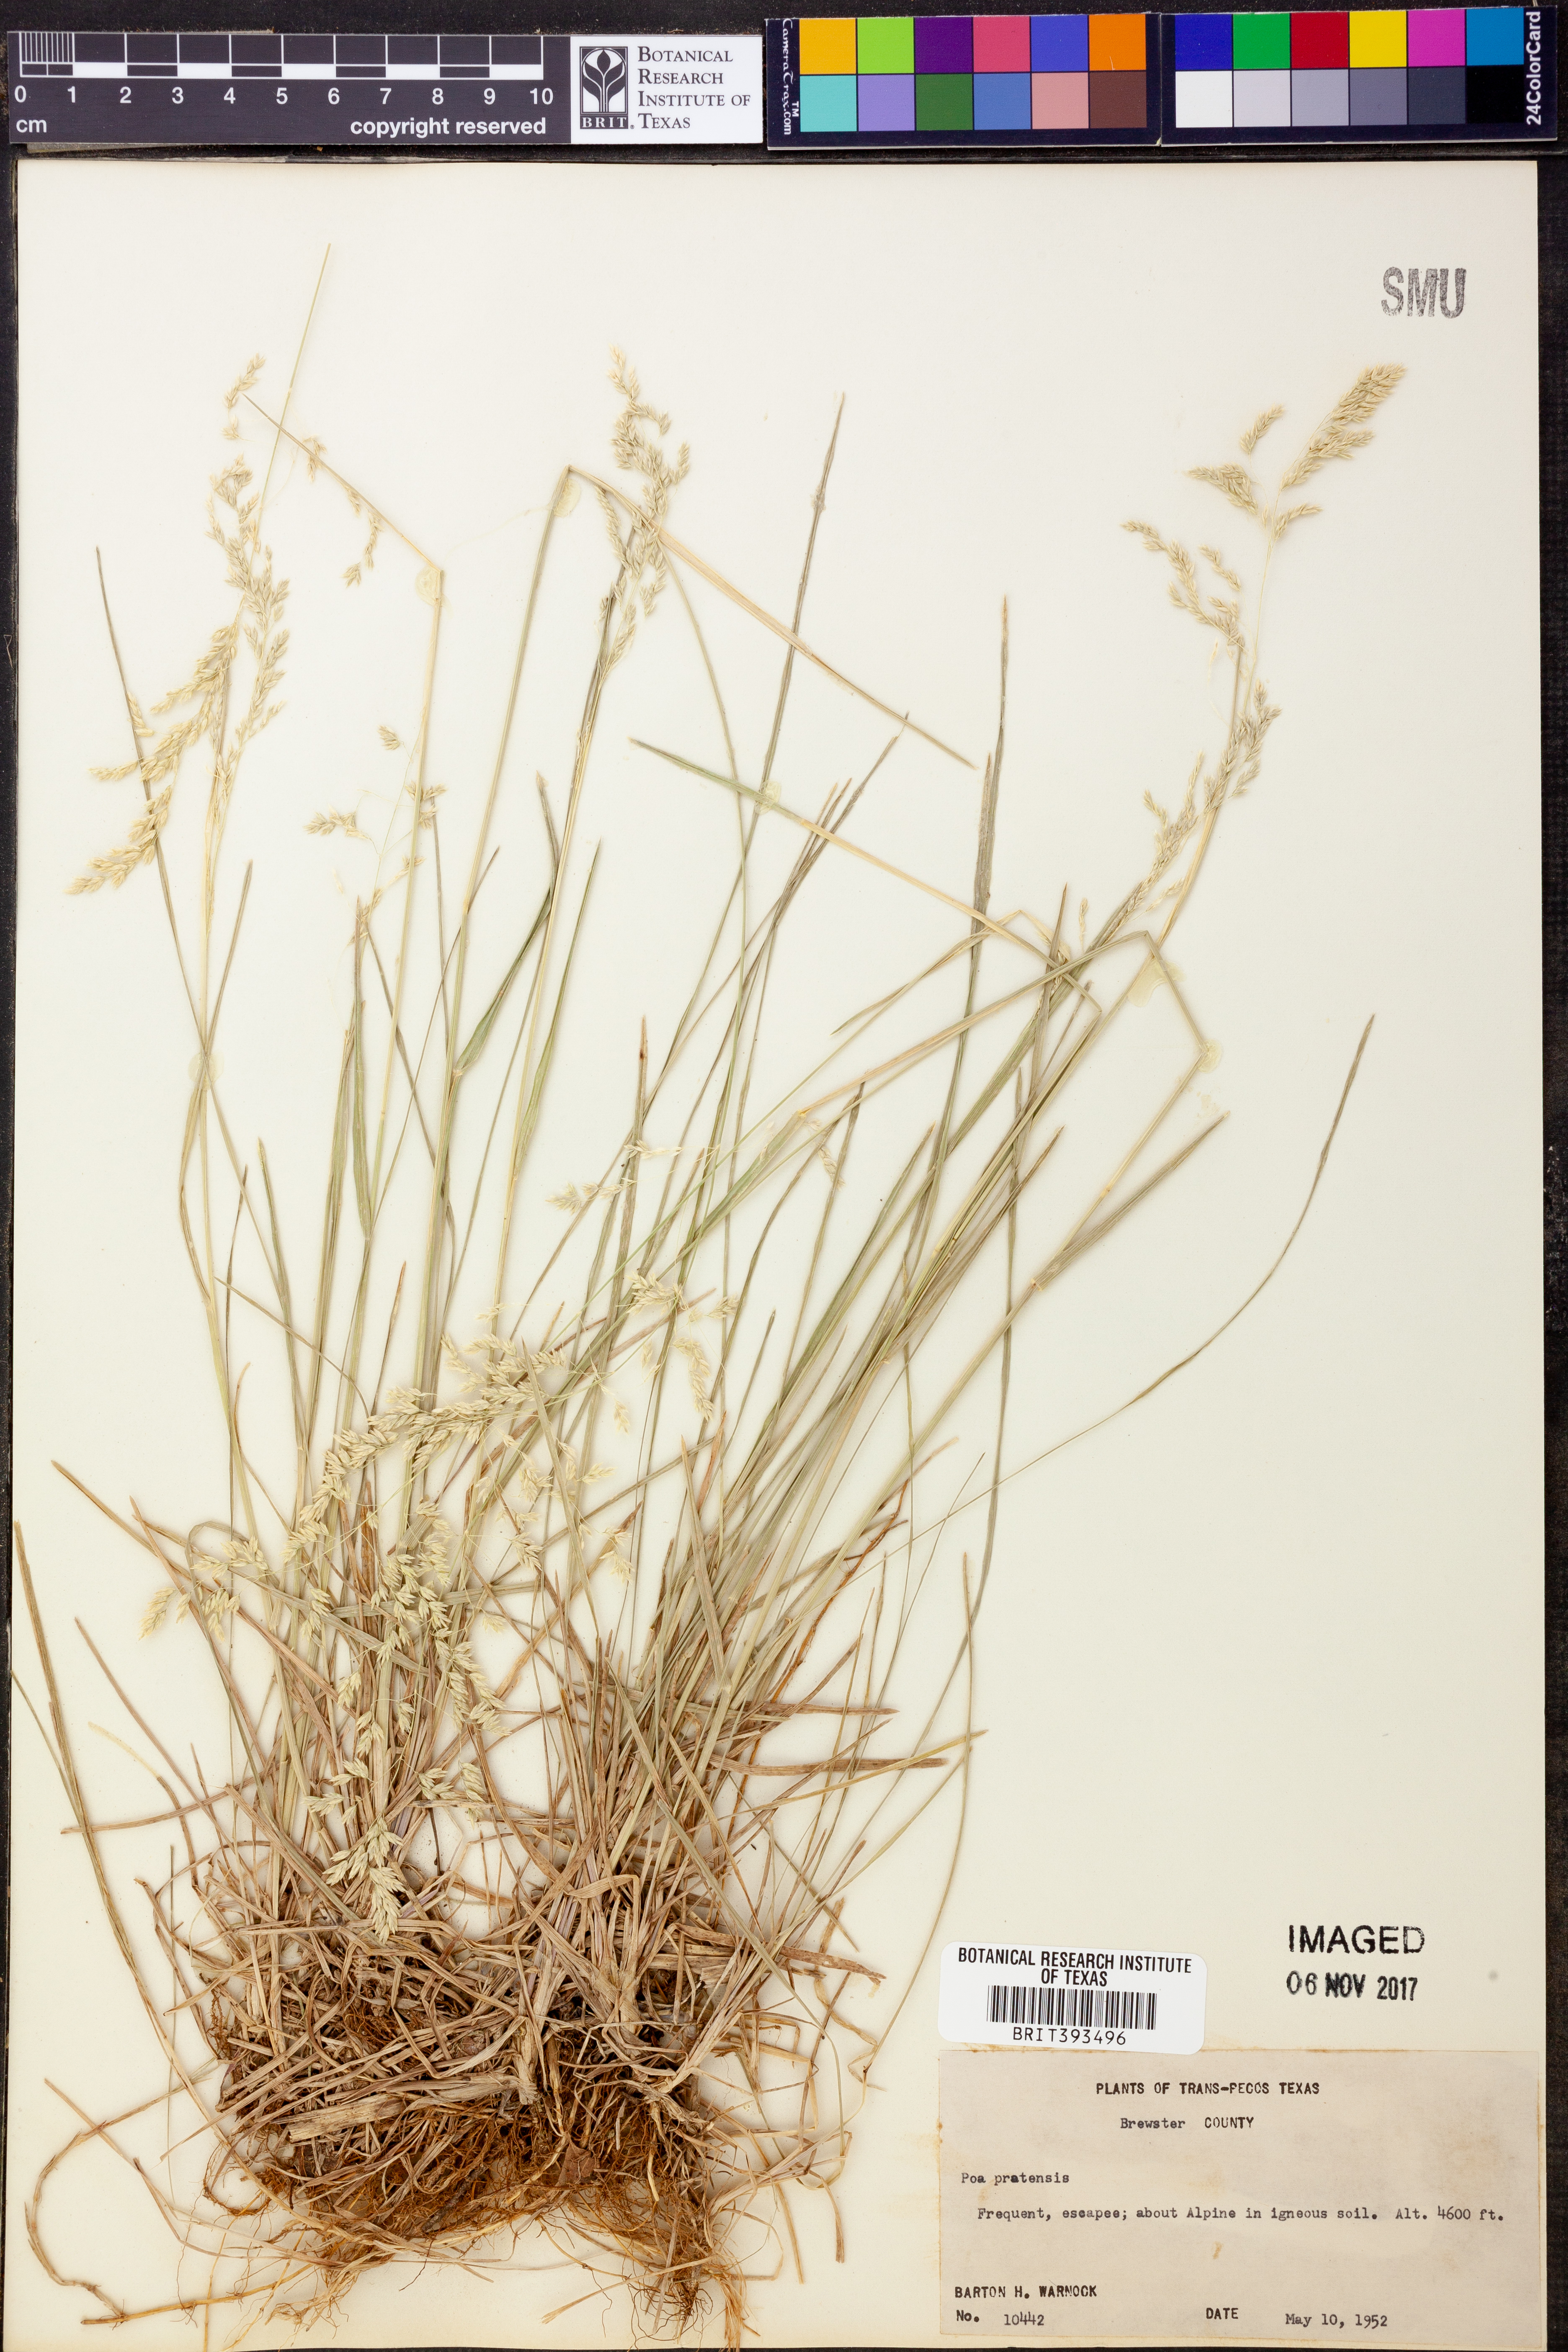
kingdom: Plantae
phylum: Tracheophyta
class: Liliopsida
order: Poales
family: Poaceae
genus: Poa
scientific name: Poa pratensis
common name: Kentucky bluegrass
